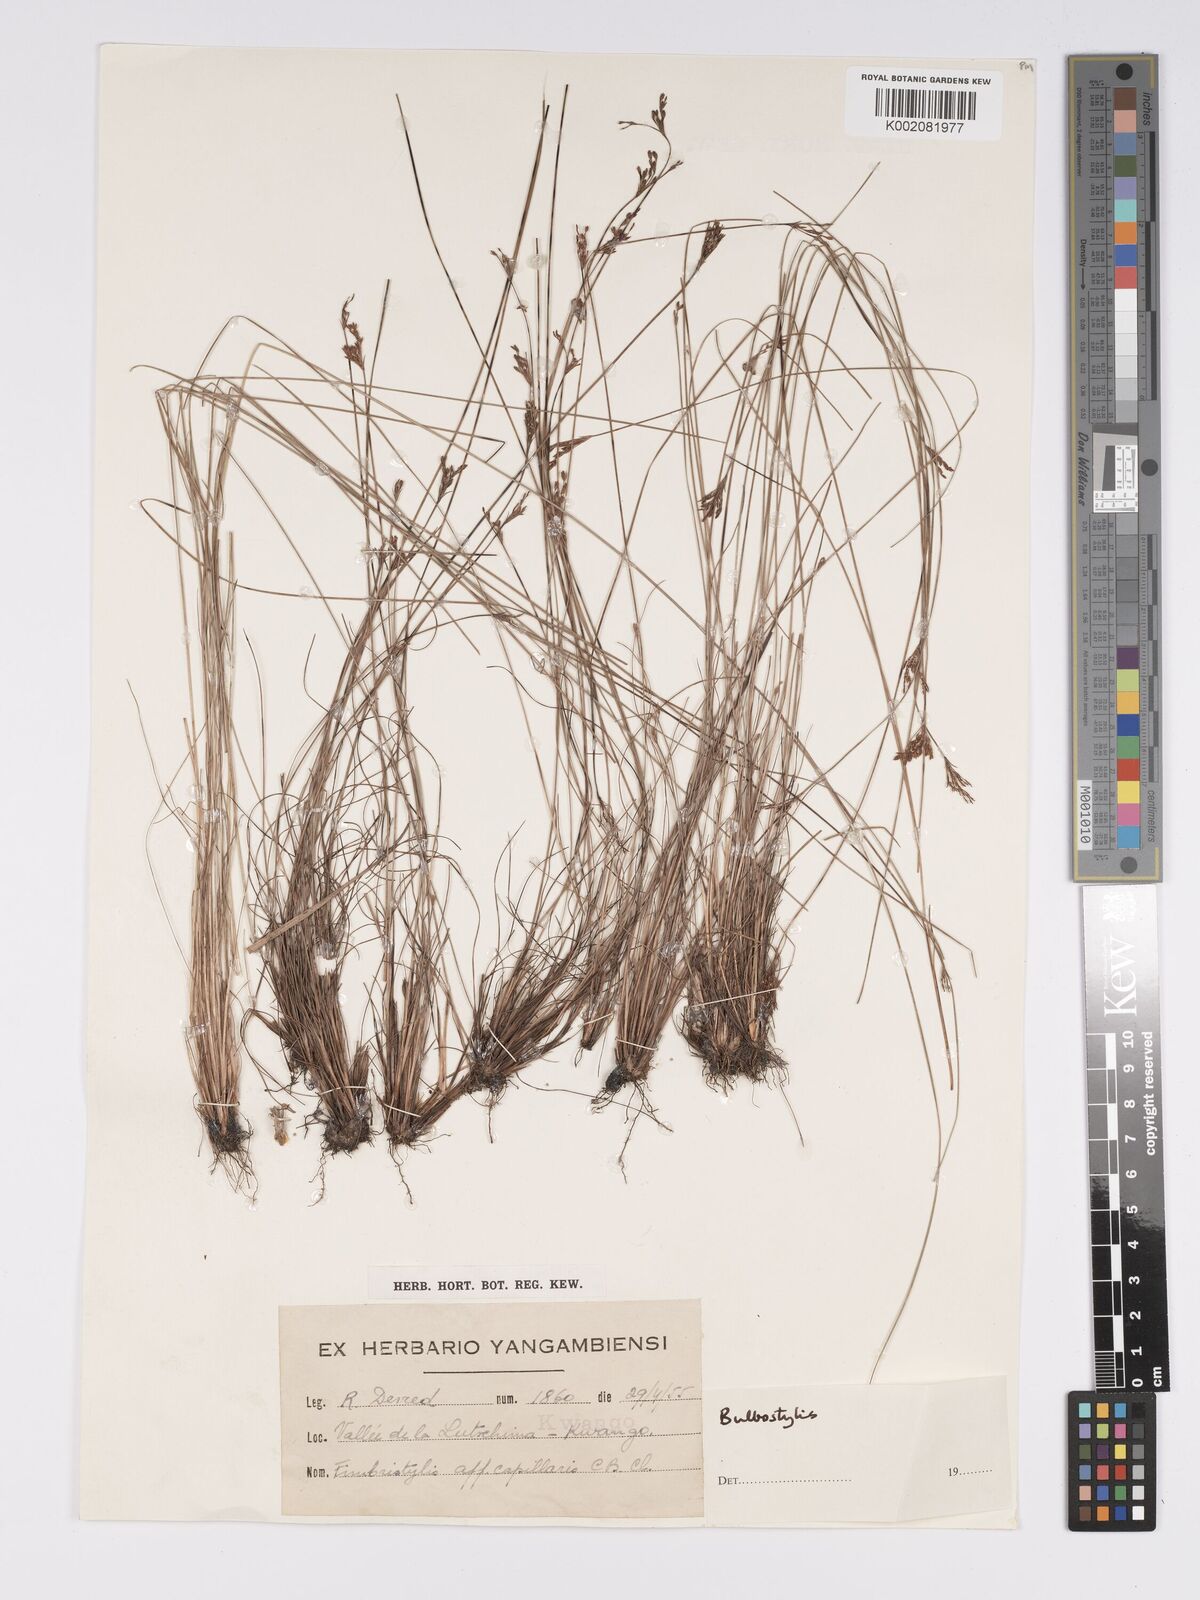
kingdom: Plantae
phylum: Tracheophyta
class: Liliopsida
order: Poales
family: Cyperaceae
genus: Bulbostylis
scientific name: Bulbostylis
